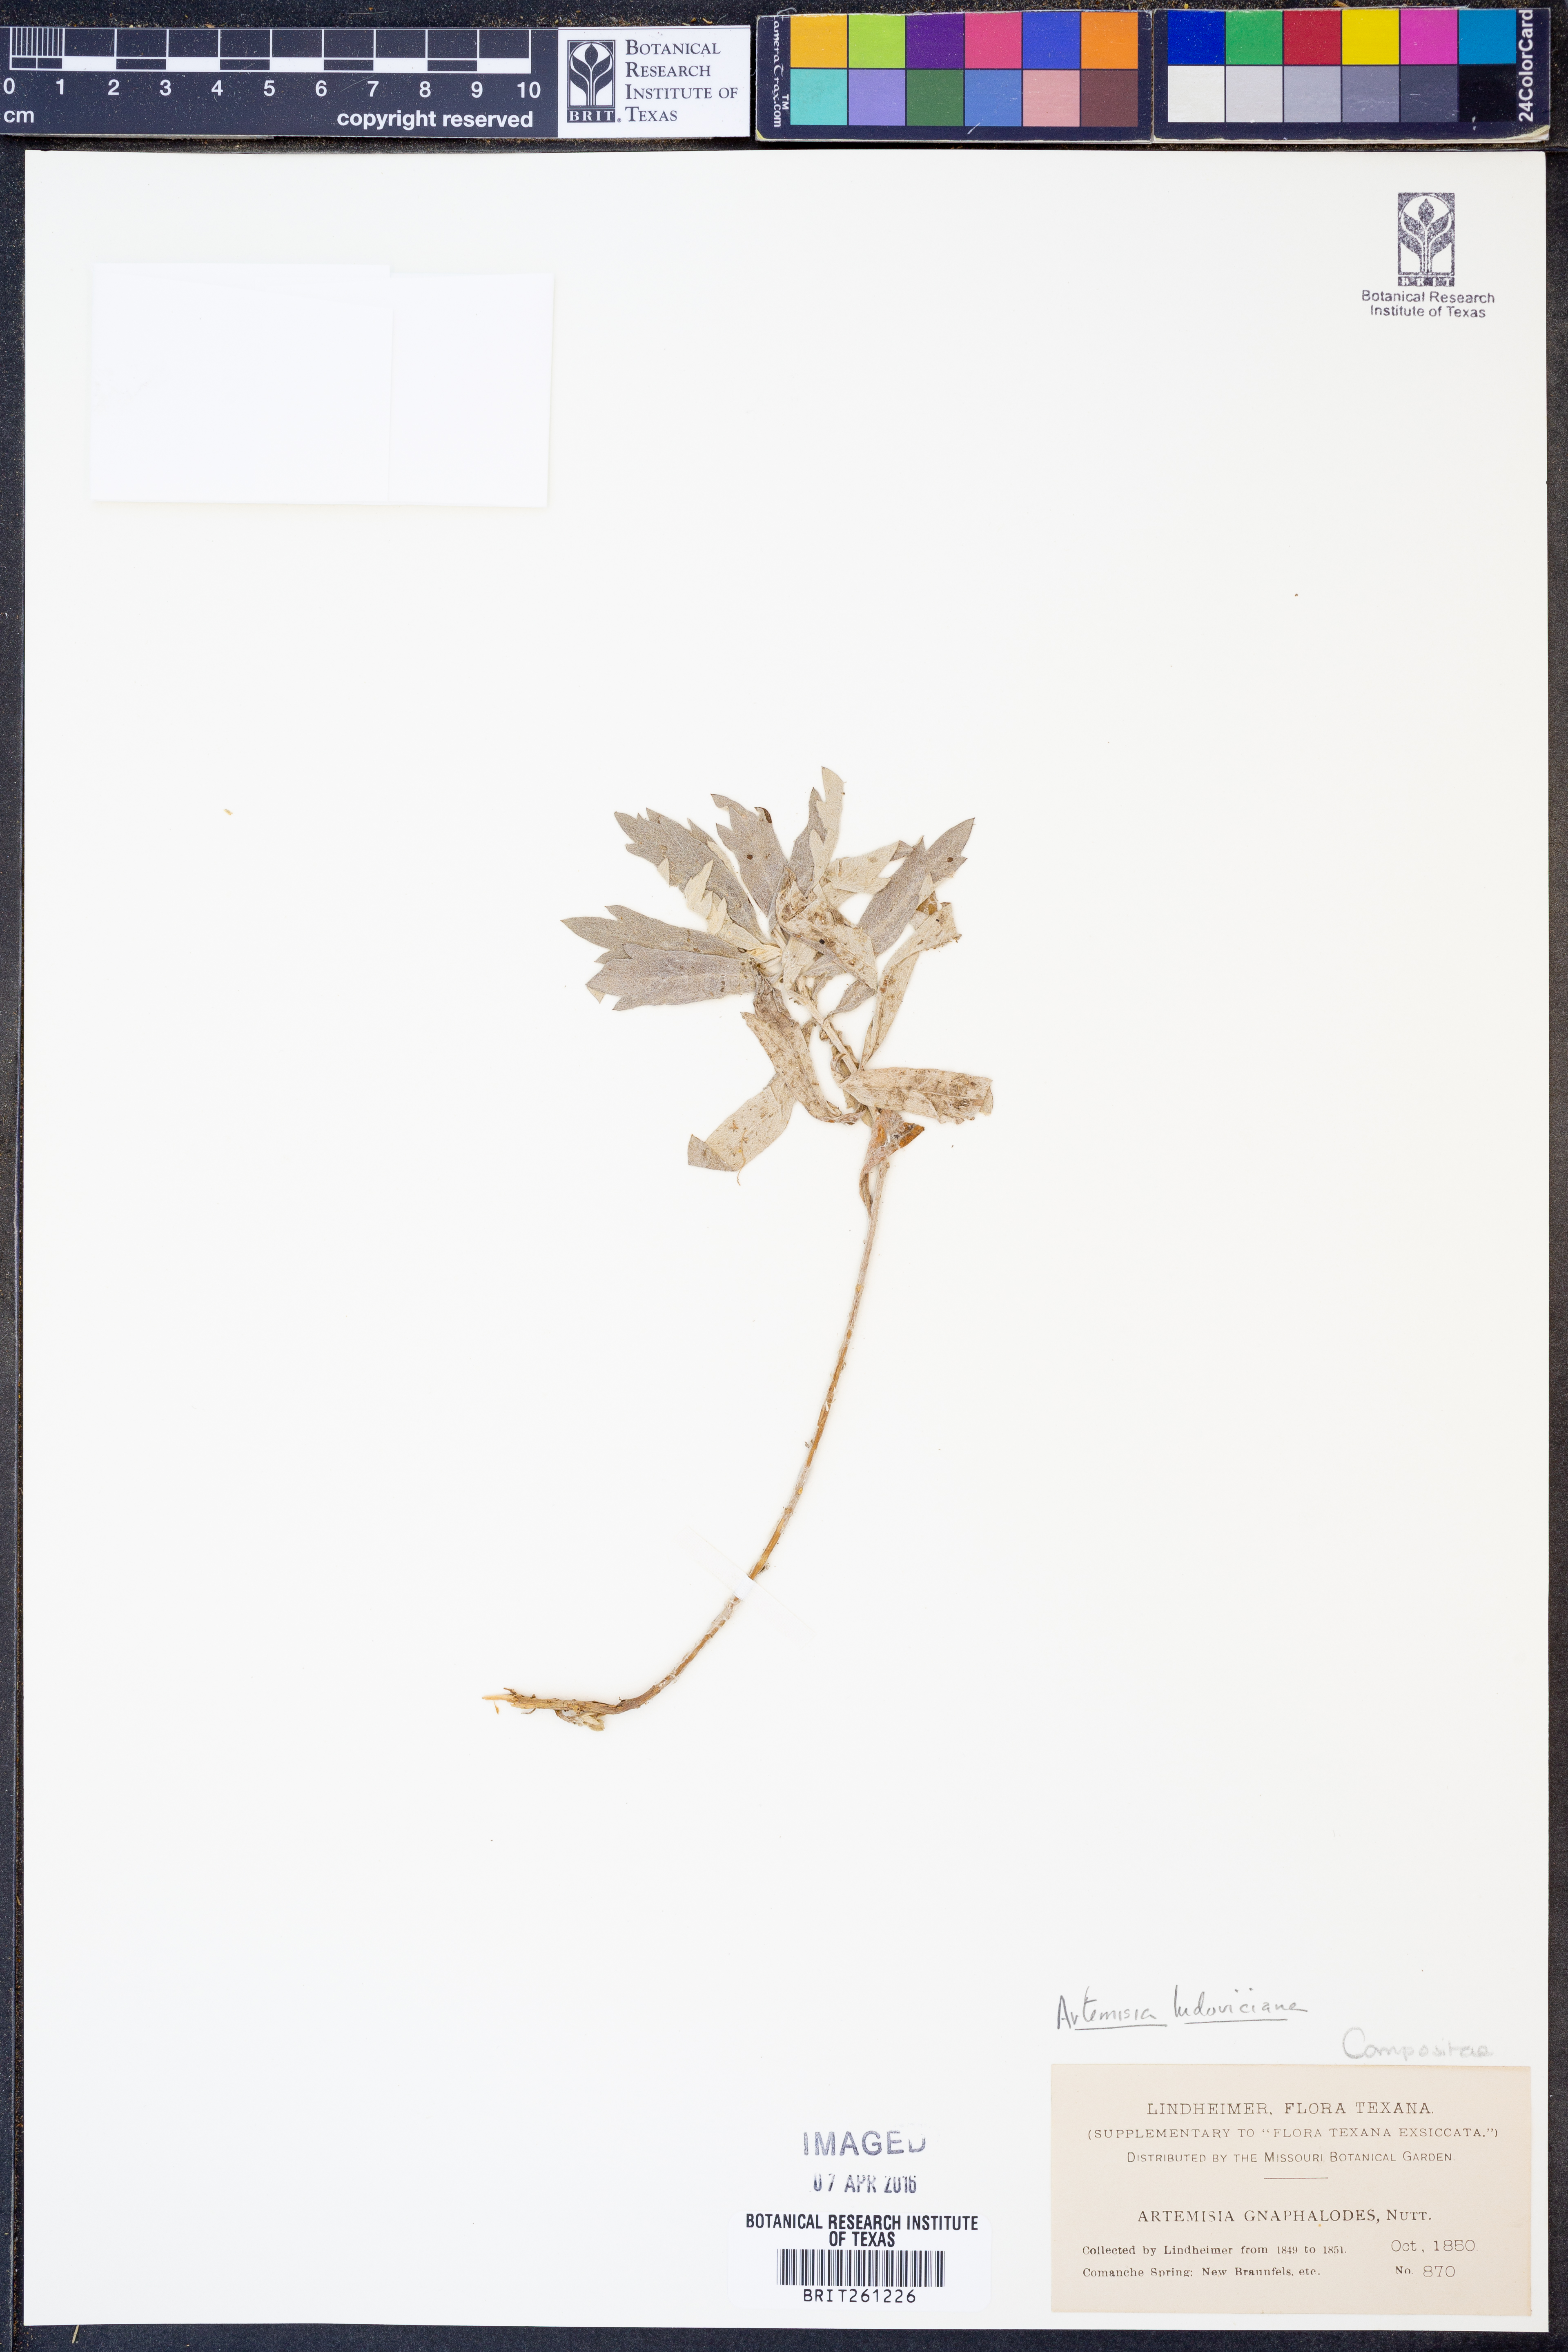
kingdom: Plantae
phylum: Tracheophyta
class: Magnoliopsida
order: Asterales
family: Asteraceae
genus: Artemisia
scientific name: Artemisia ludoviciana
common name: Western mugwort
